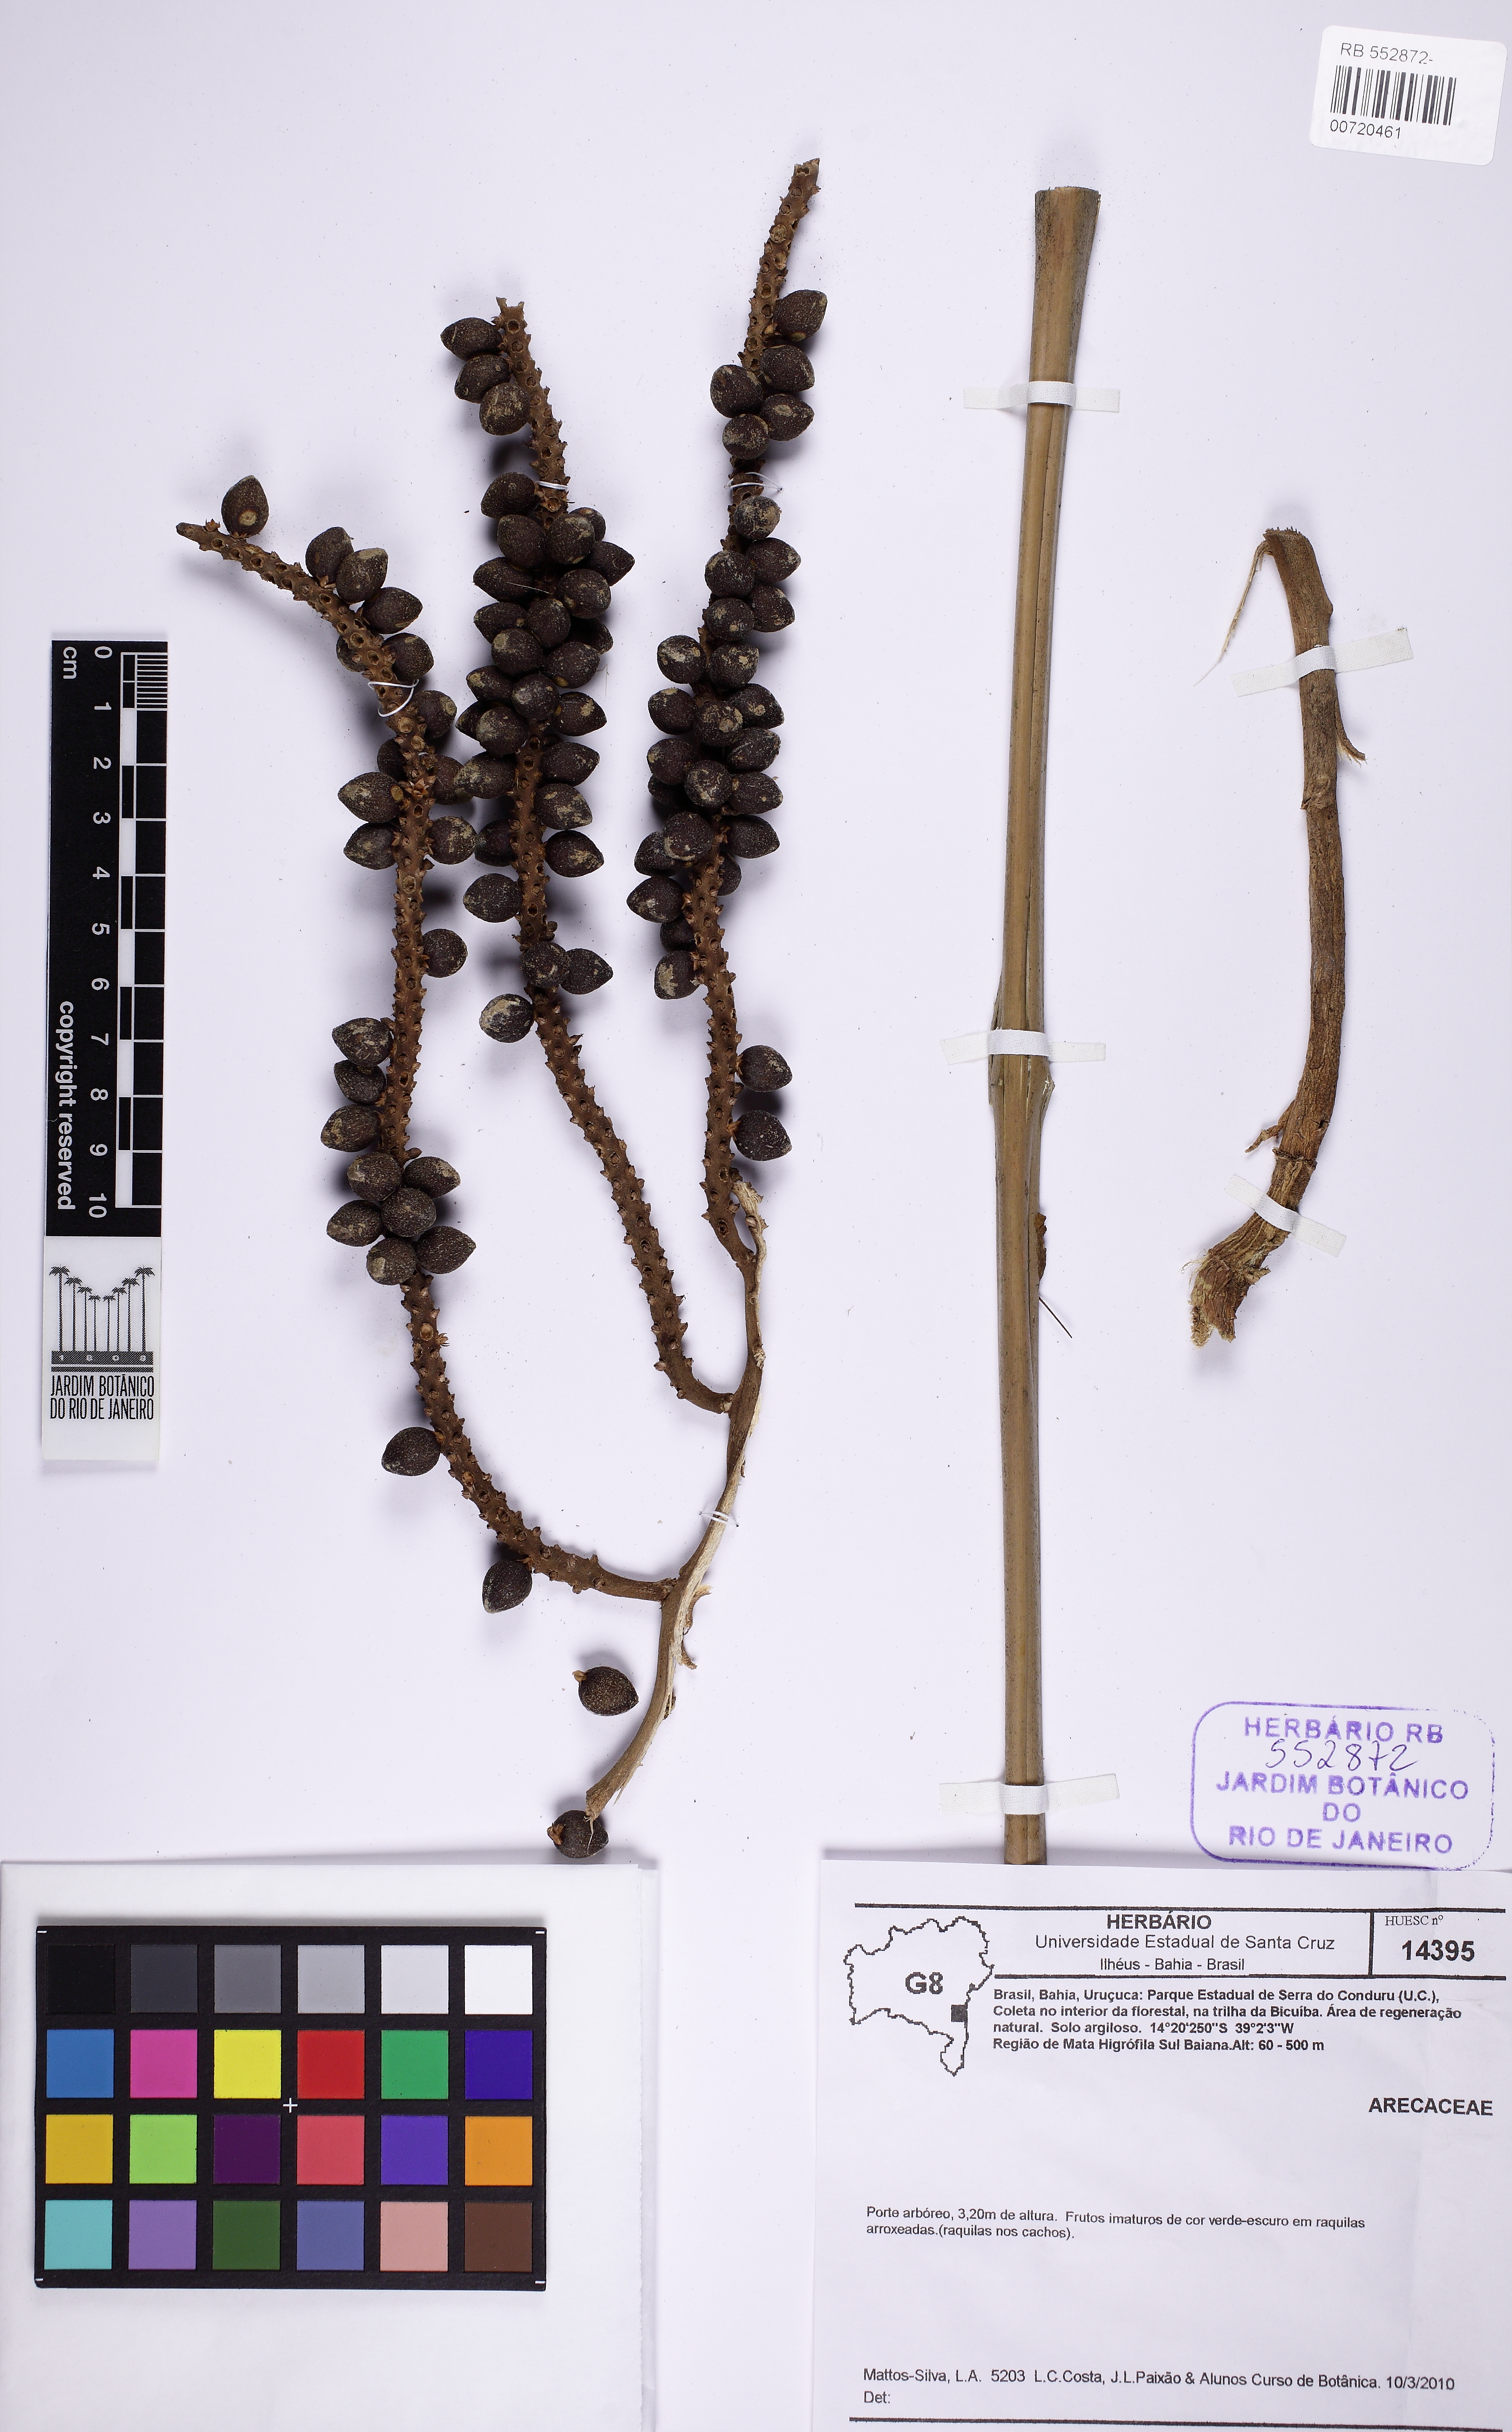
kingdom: Plantae
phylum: Tracheophyta
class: Liliopsida
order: Arecales
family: Arecaceae
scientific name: Arecaceae
